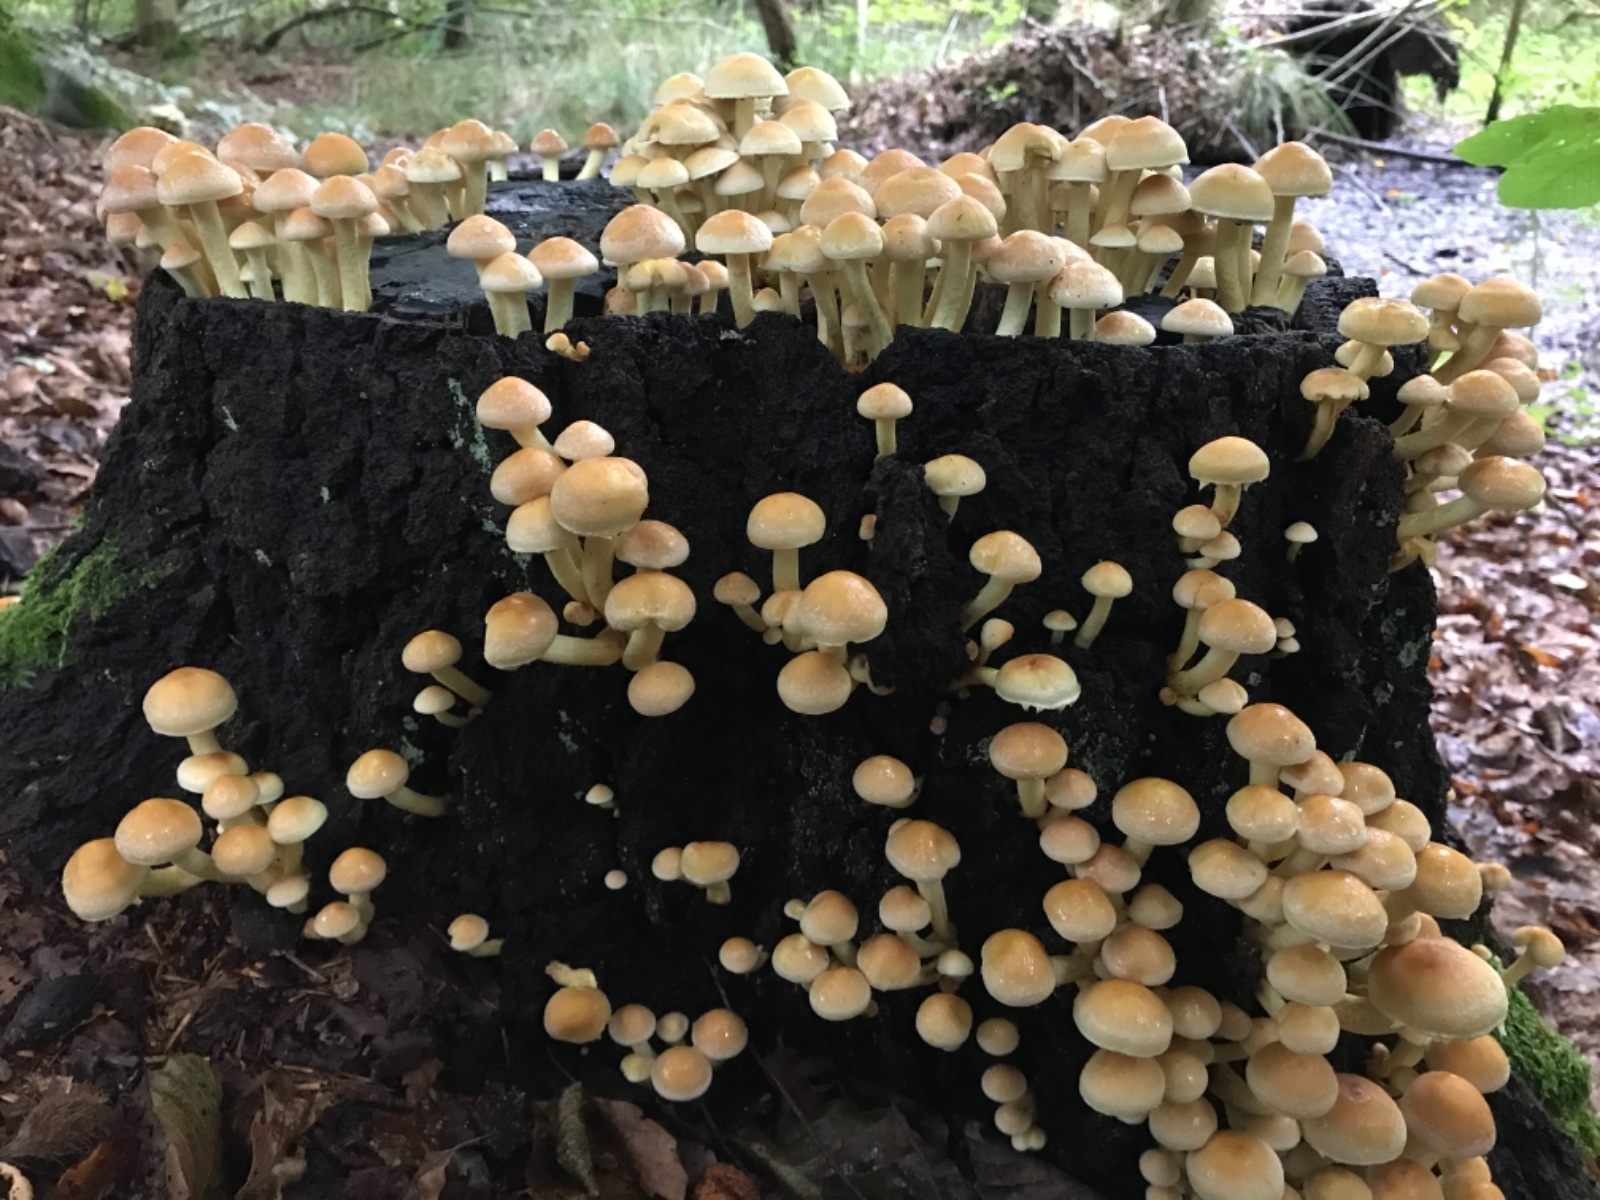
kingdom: Fungi
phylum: Basidiomycota
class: Agaricomycetes
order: Agaricales
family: Strophariaceae
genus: Hypholoma
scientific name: Hypholoma fasciculare
